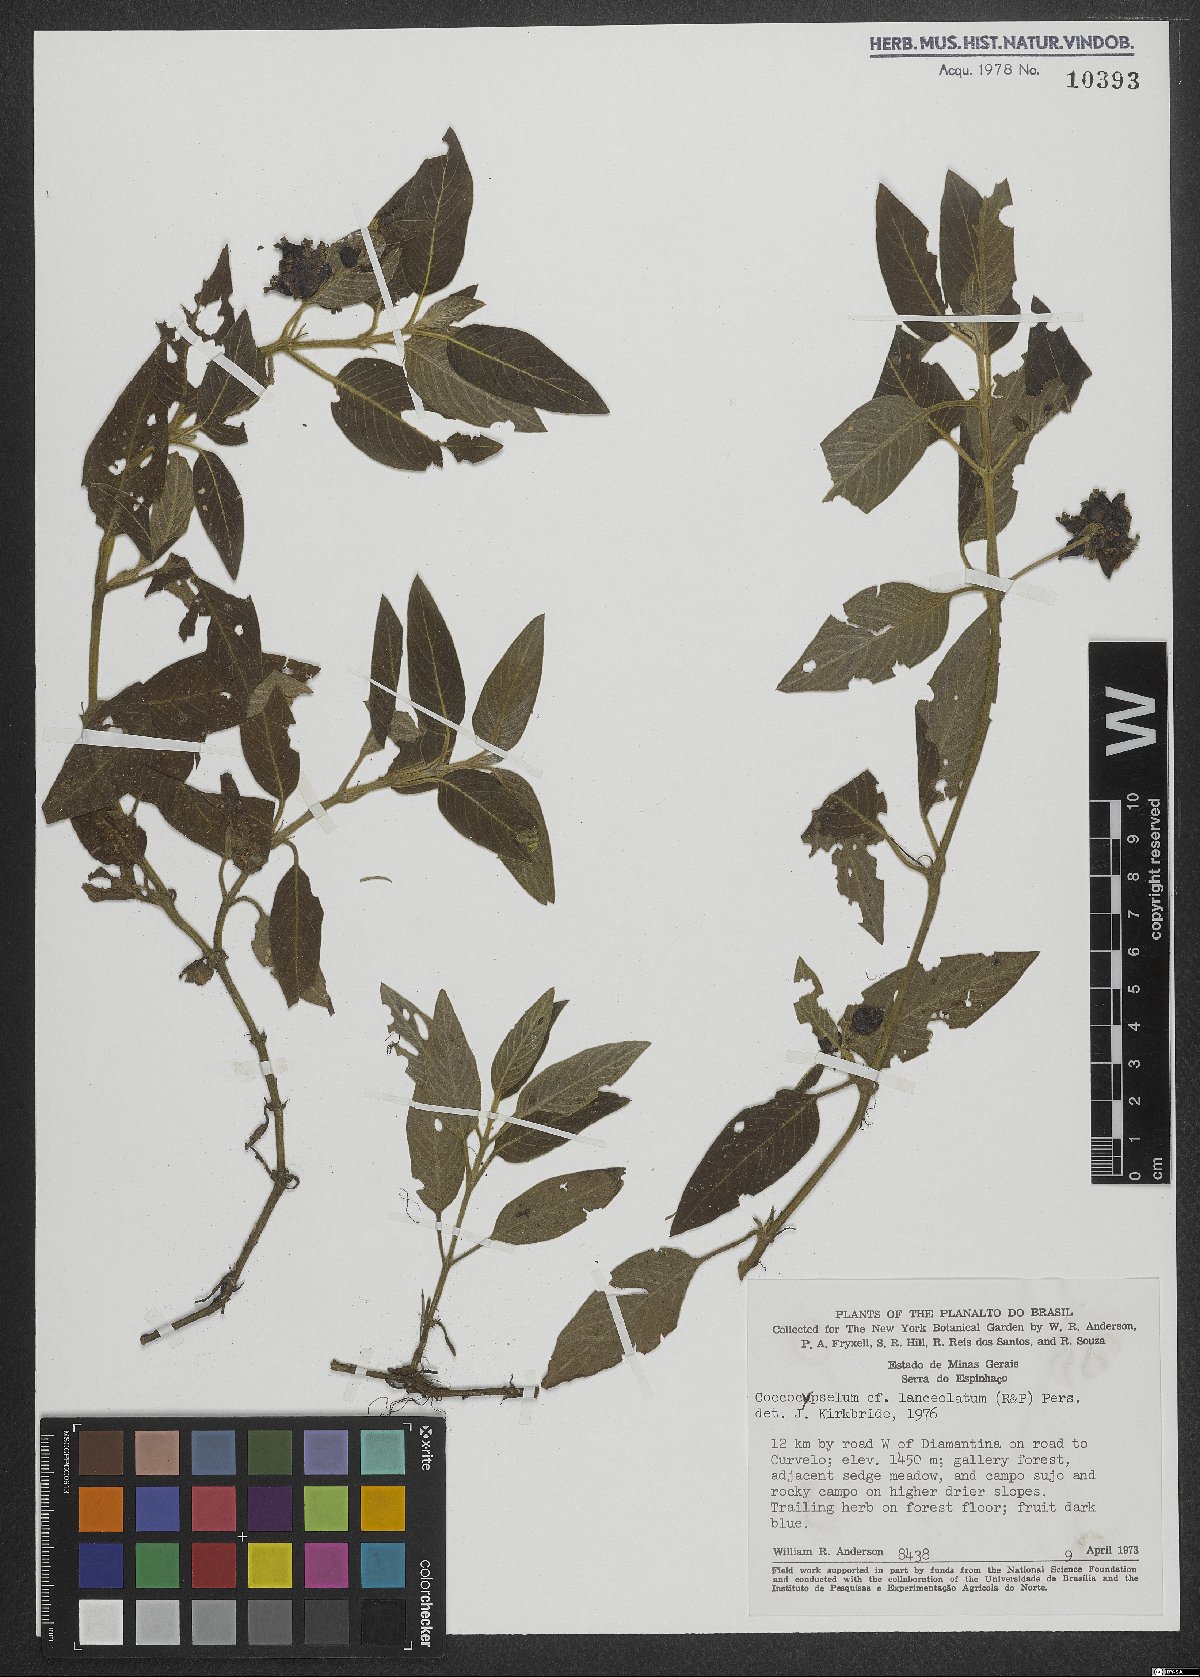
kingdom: Plantae
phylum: Tracheophyta
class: Magnoliopsida
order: Gentianales
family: Rubiaceae
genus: Coccocypselum
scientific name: Coccocypselum lanceolatum
